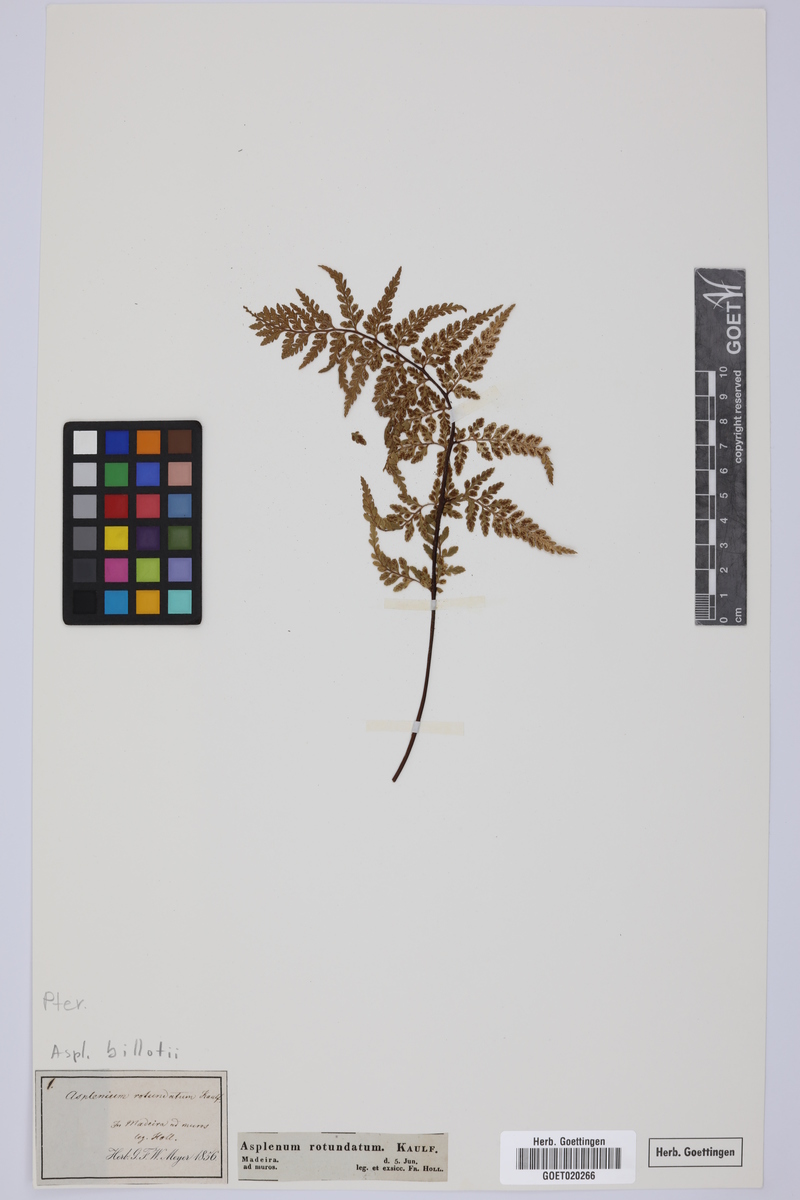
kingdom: Plantae
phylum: Tracheophyta
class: Polypodiopsida
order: Polypodiales
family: Aspleniaceae
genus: Asplenium
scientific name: Asplenium obovatum
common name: Lanceolate spleenwort
